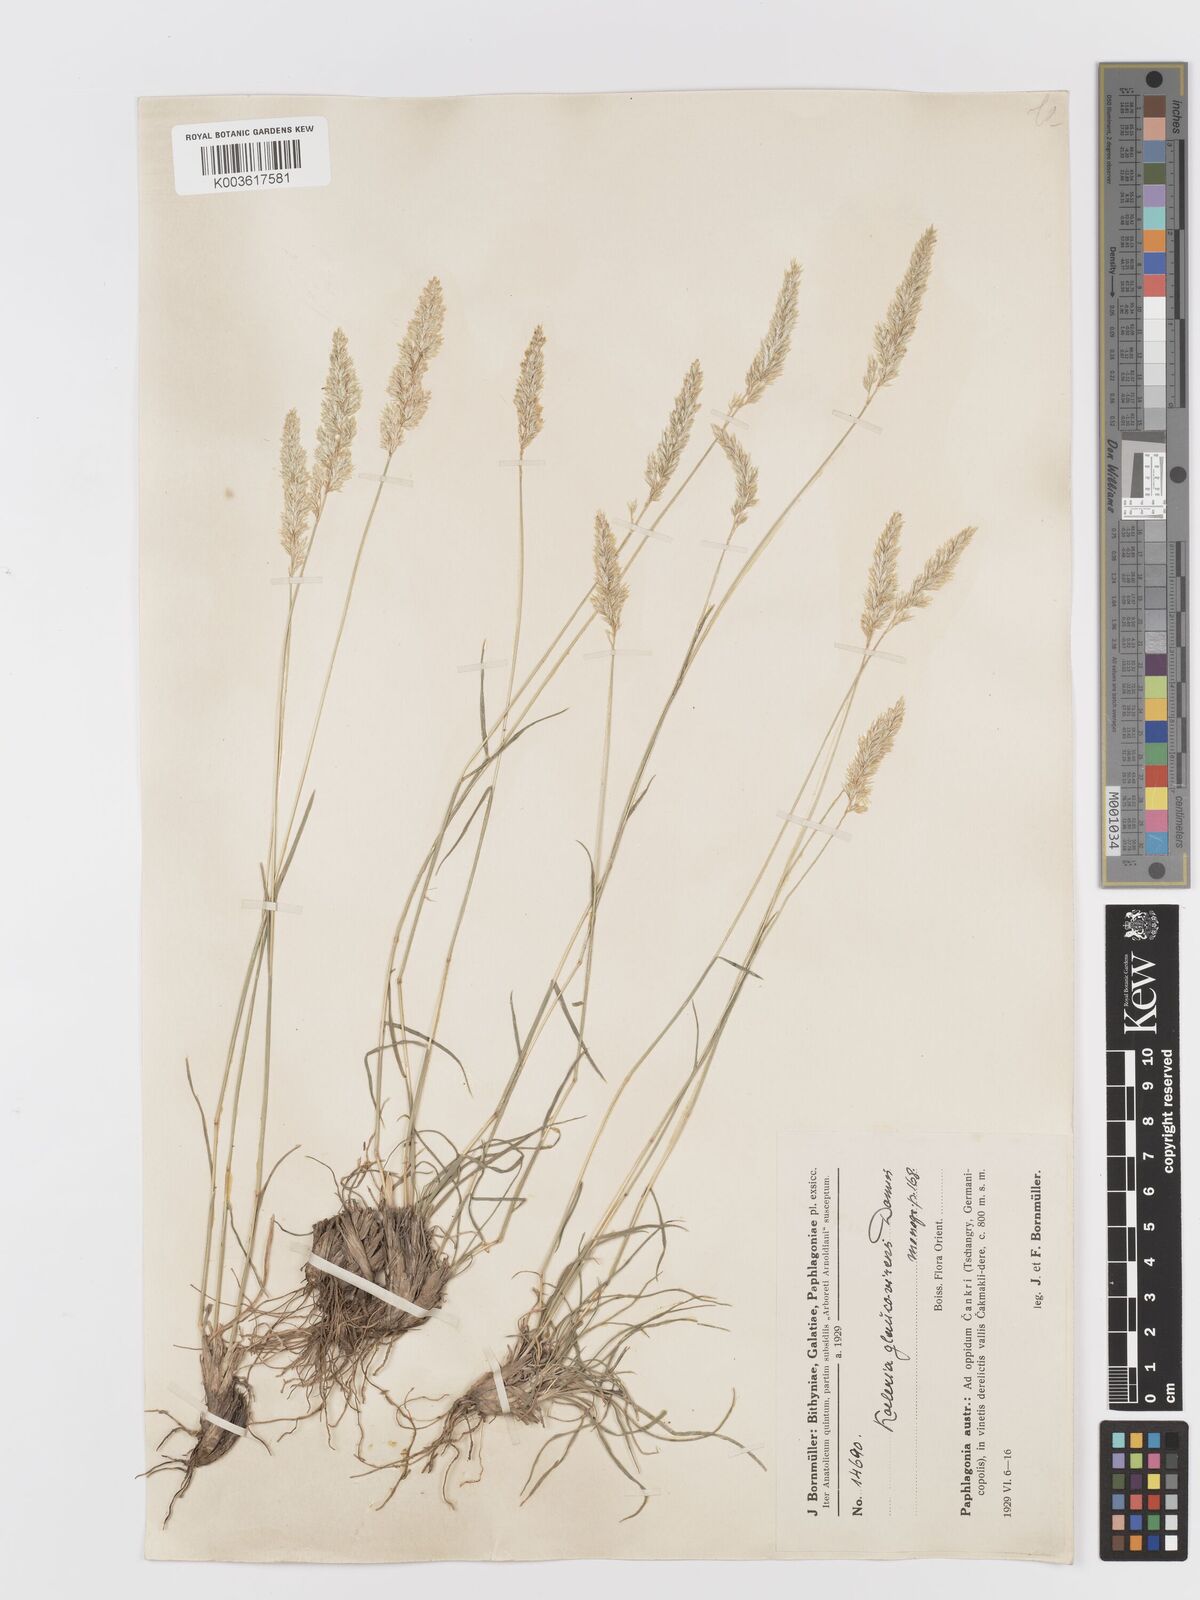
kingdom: Plantae
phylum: Tracheophyta
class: Liliopsida
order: Poales
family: Poaceae
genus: Koeleria
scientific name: Koeleria macrantha
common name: Crested hair-grass
